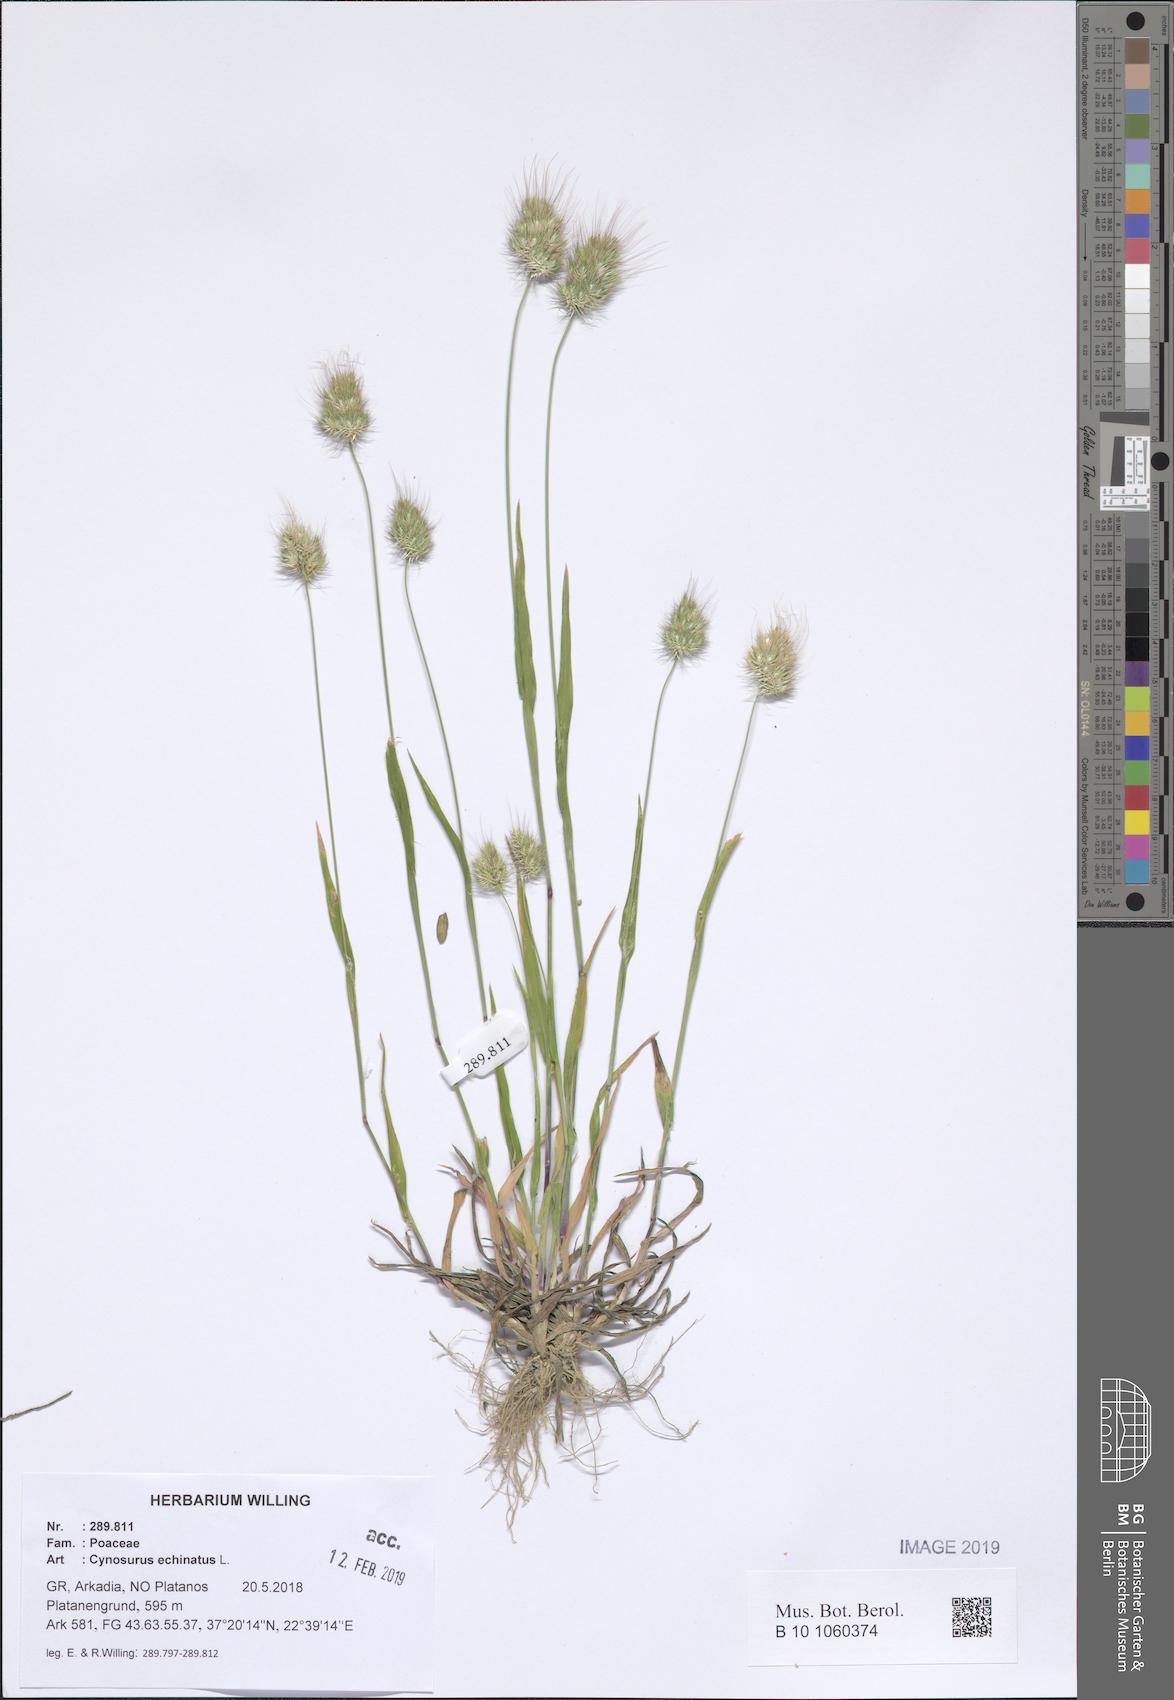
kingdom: Plantae
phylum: Tracheophyta
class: Liliopsida
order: Poales
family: Poaceae
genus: Cynosurus
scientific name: Cynosurus echinatus
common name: Rough dog's-tail
